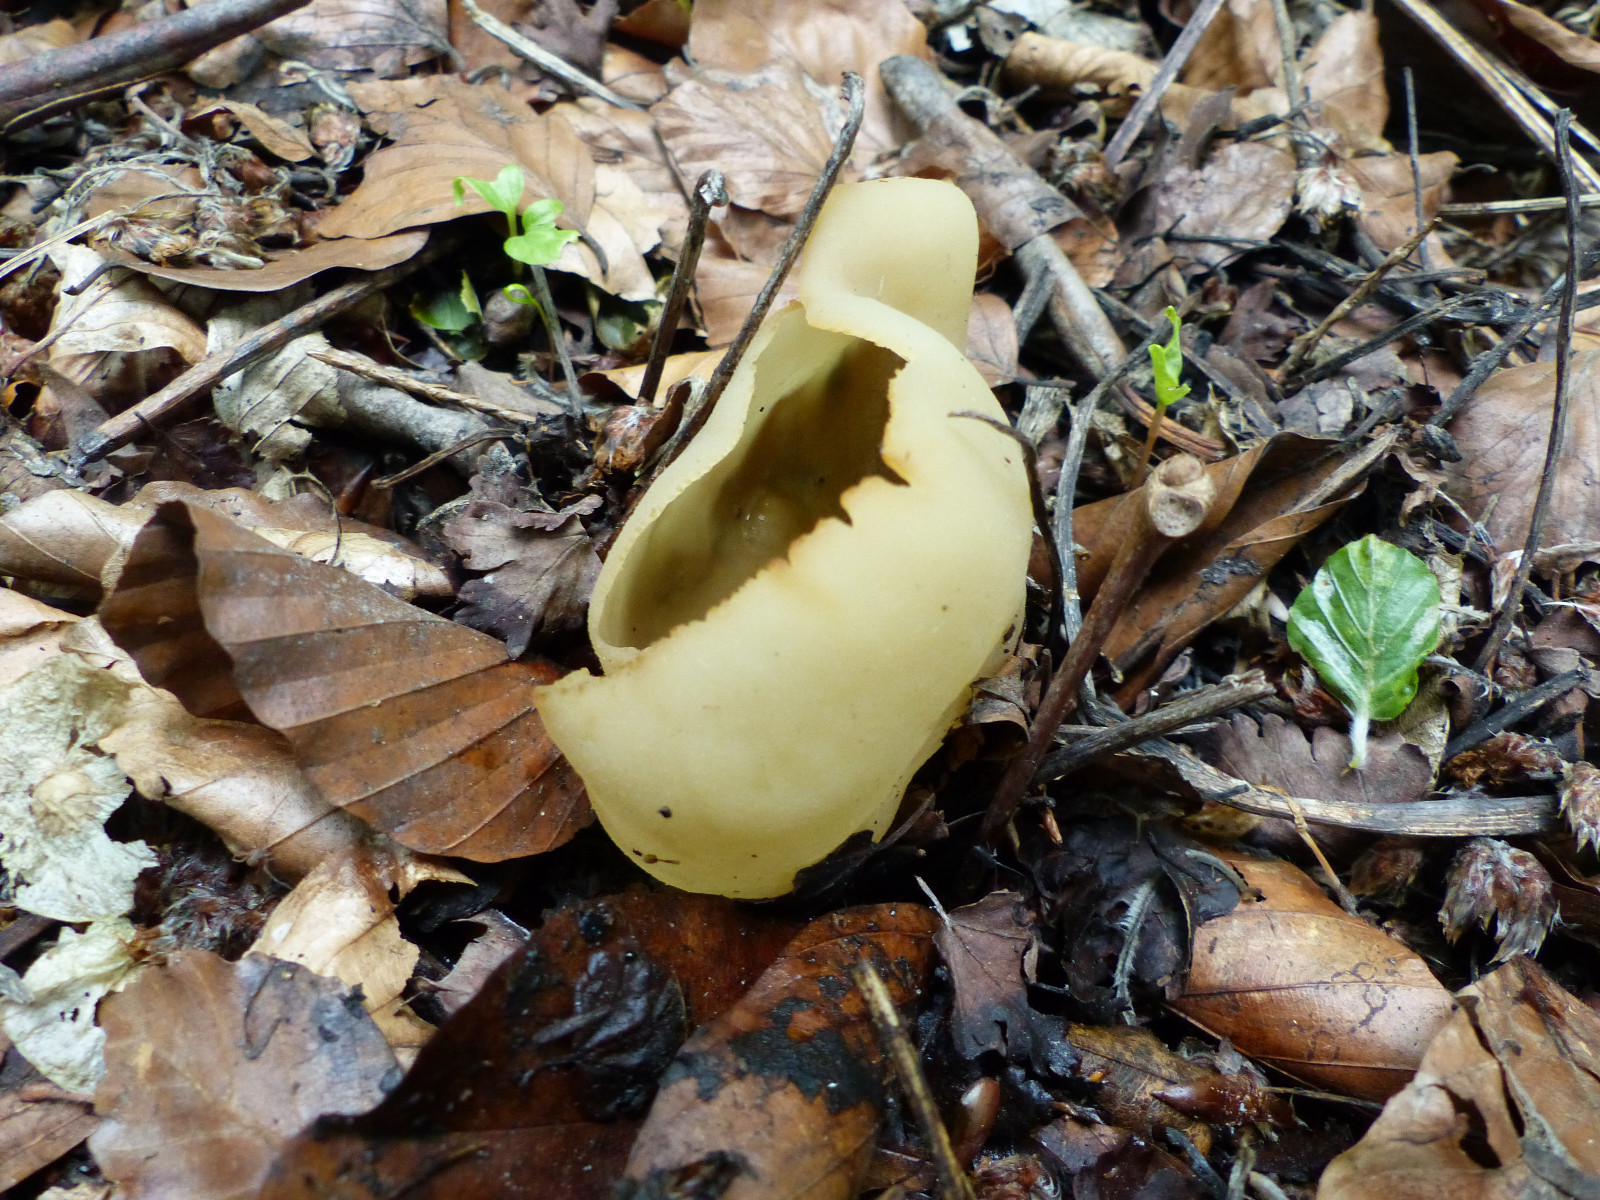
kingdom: Fungi
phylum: Ascomycota
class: Pezizomycetes
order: Pezizales
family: Pezizaceae
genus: Peziza
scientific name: Peziza
